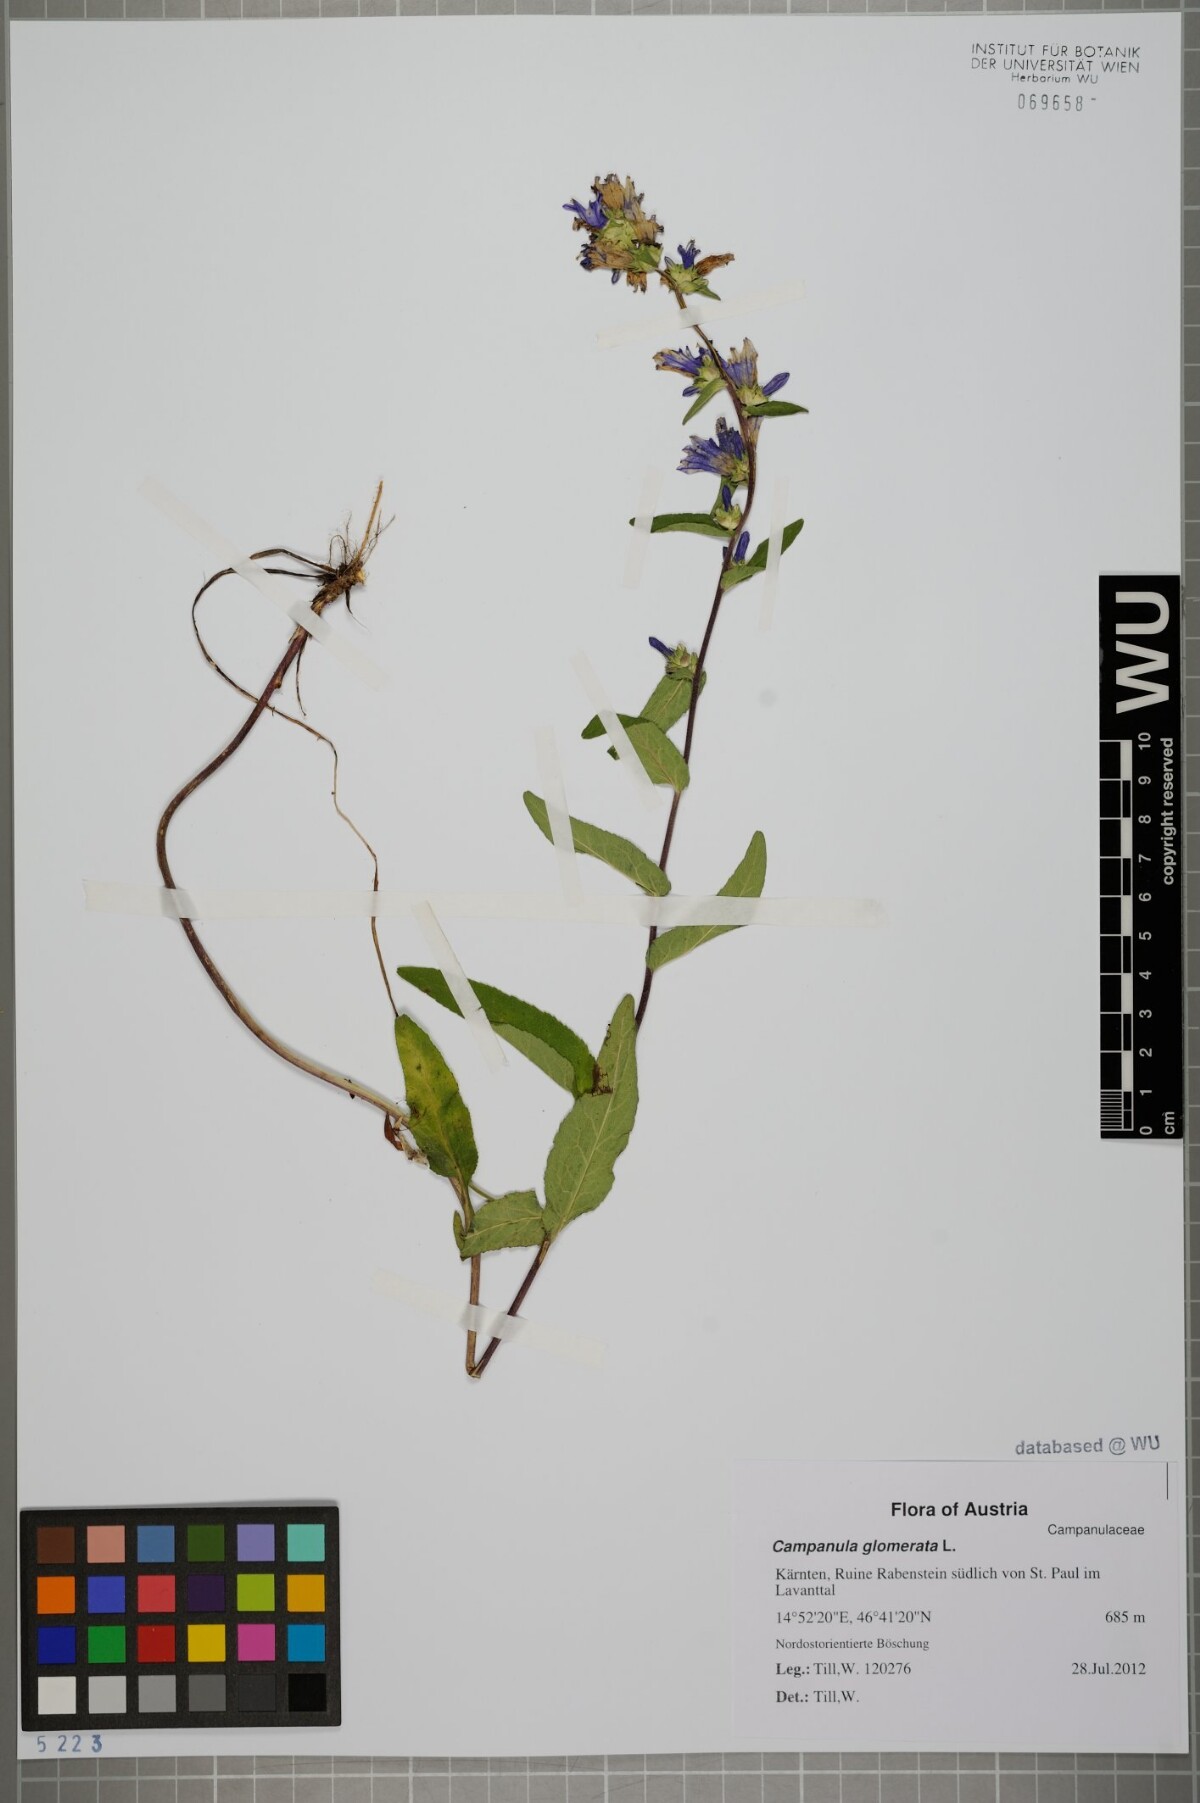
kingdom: Plantae
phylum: Tracheophyta
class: Magnoliopsida
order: Asterales
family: Campanulaceae
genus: Campanula
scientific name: Campanula glomerata
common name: Clustered bellflower
